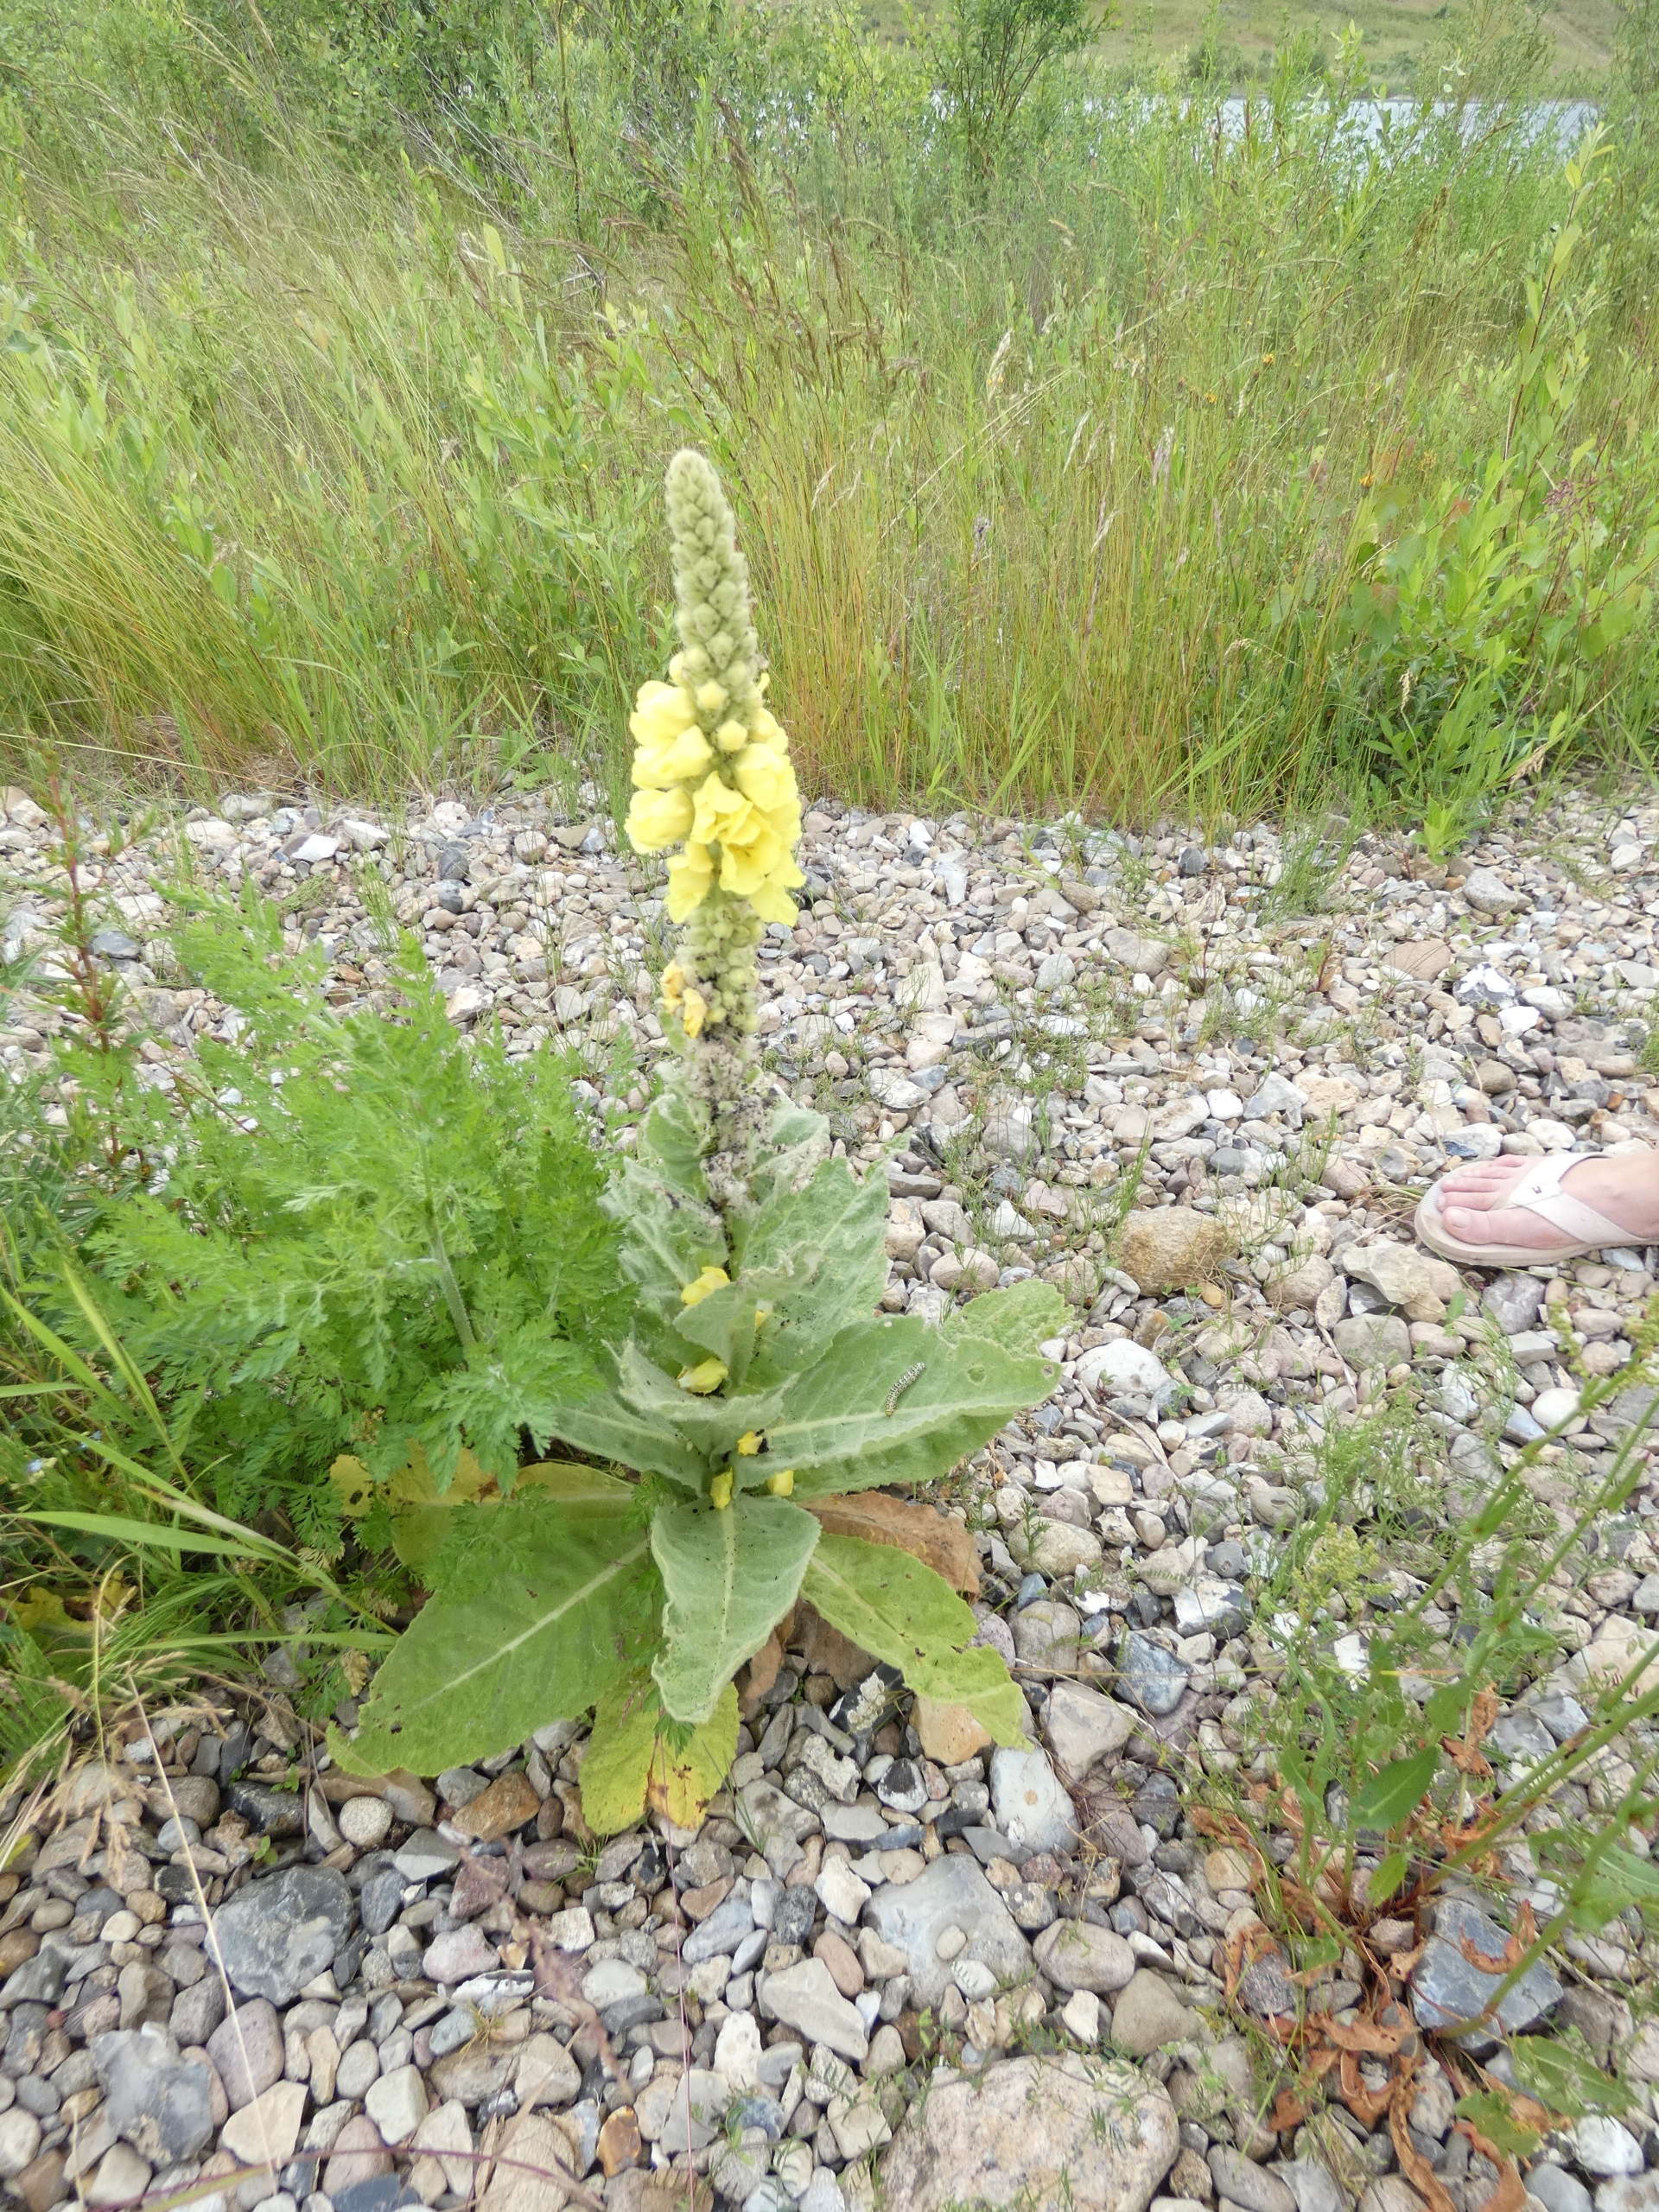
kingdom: Animalia
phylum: Arthropoda
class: Insecta
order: Lepidoptera
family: Noctuidae
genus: Cucullia
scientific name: Cucullia verbasci
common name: Filtbladet kongelys-hætteugle
